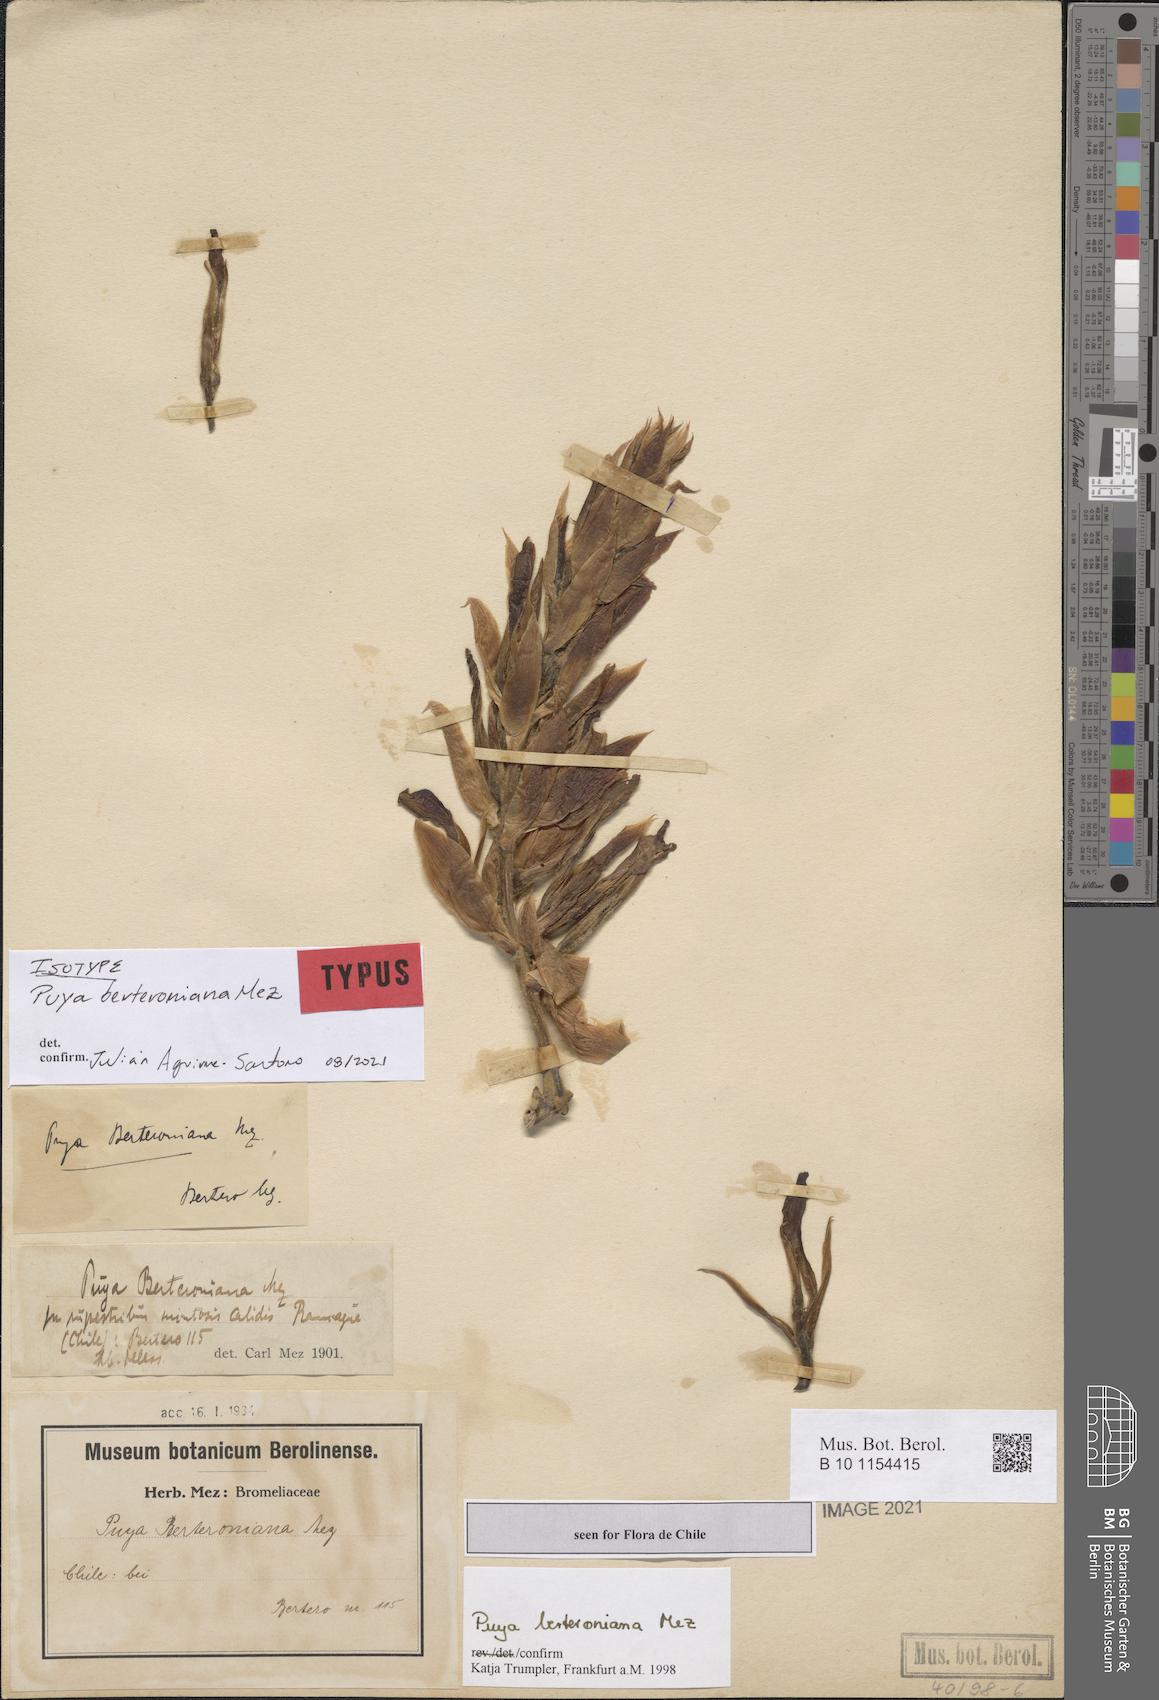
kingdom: Plantae
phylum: Tracheophyta
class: Liliopsida
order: Poales
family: Bromeliaceae
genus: Puya
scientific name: Puya berteroniana
